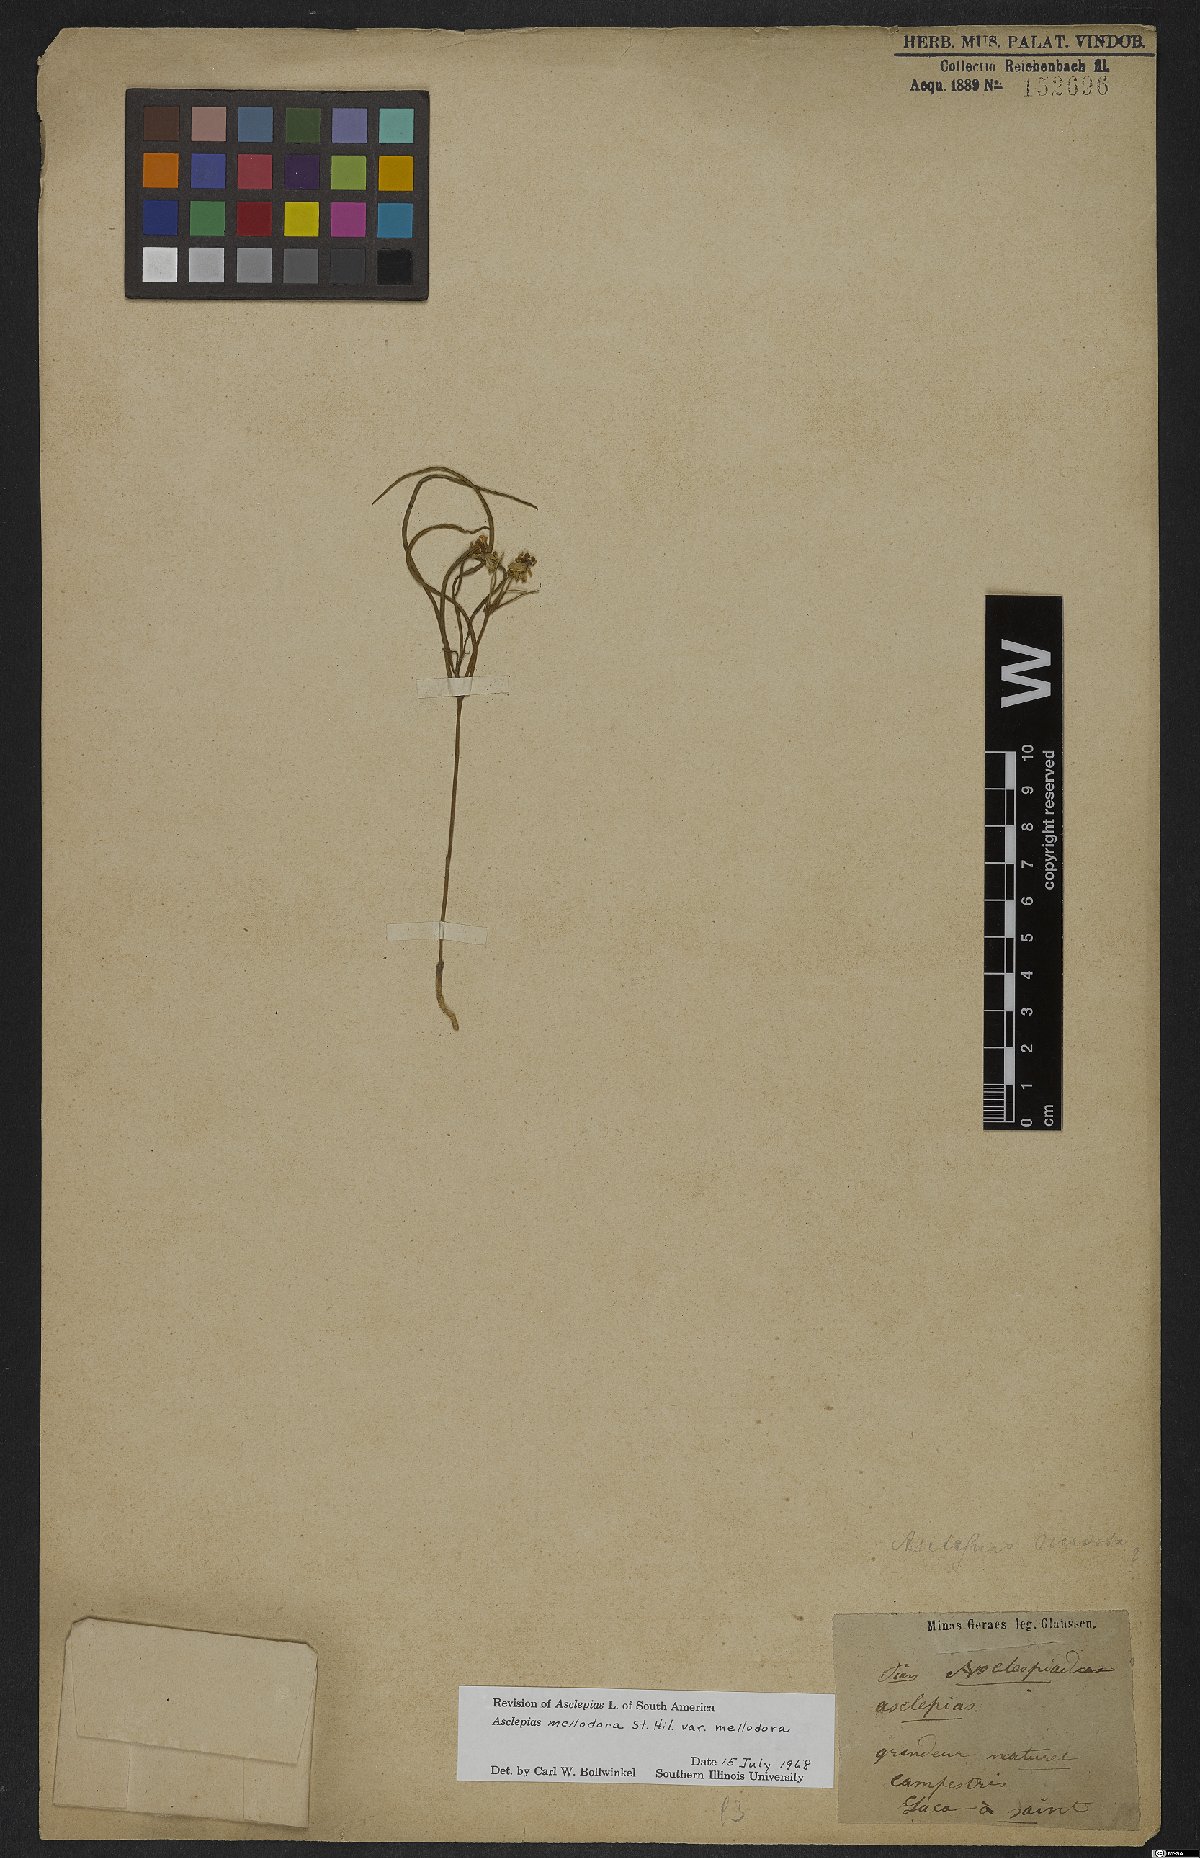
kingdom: Plantae
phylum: Tracheophyta
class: Magnoliopsida
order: Gentianales
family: Apocynaceae
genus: Asclepias
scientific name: Asclepias mellodora
